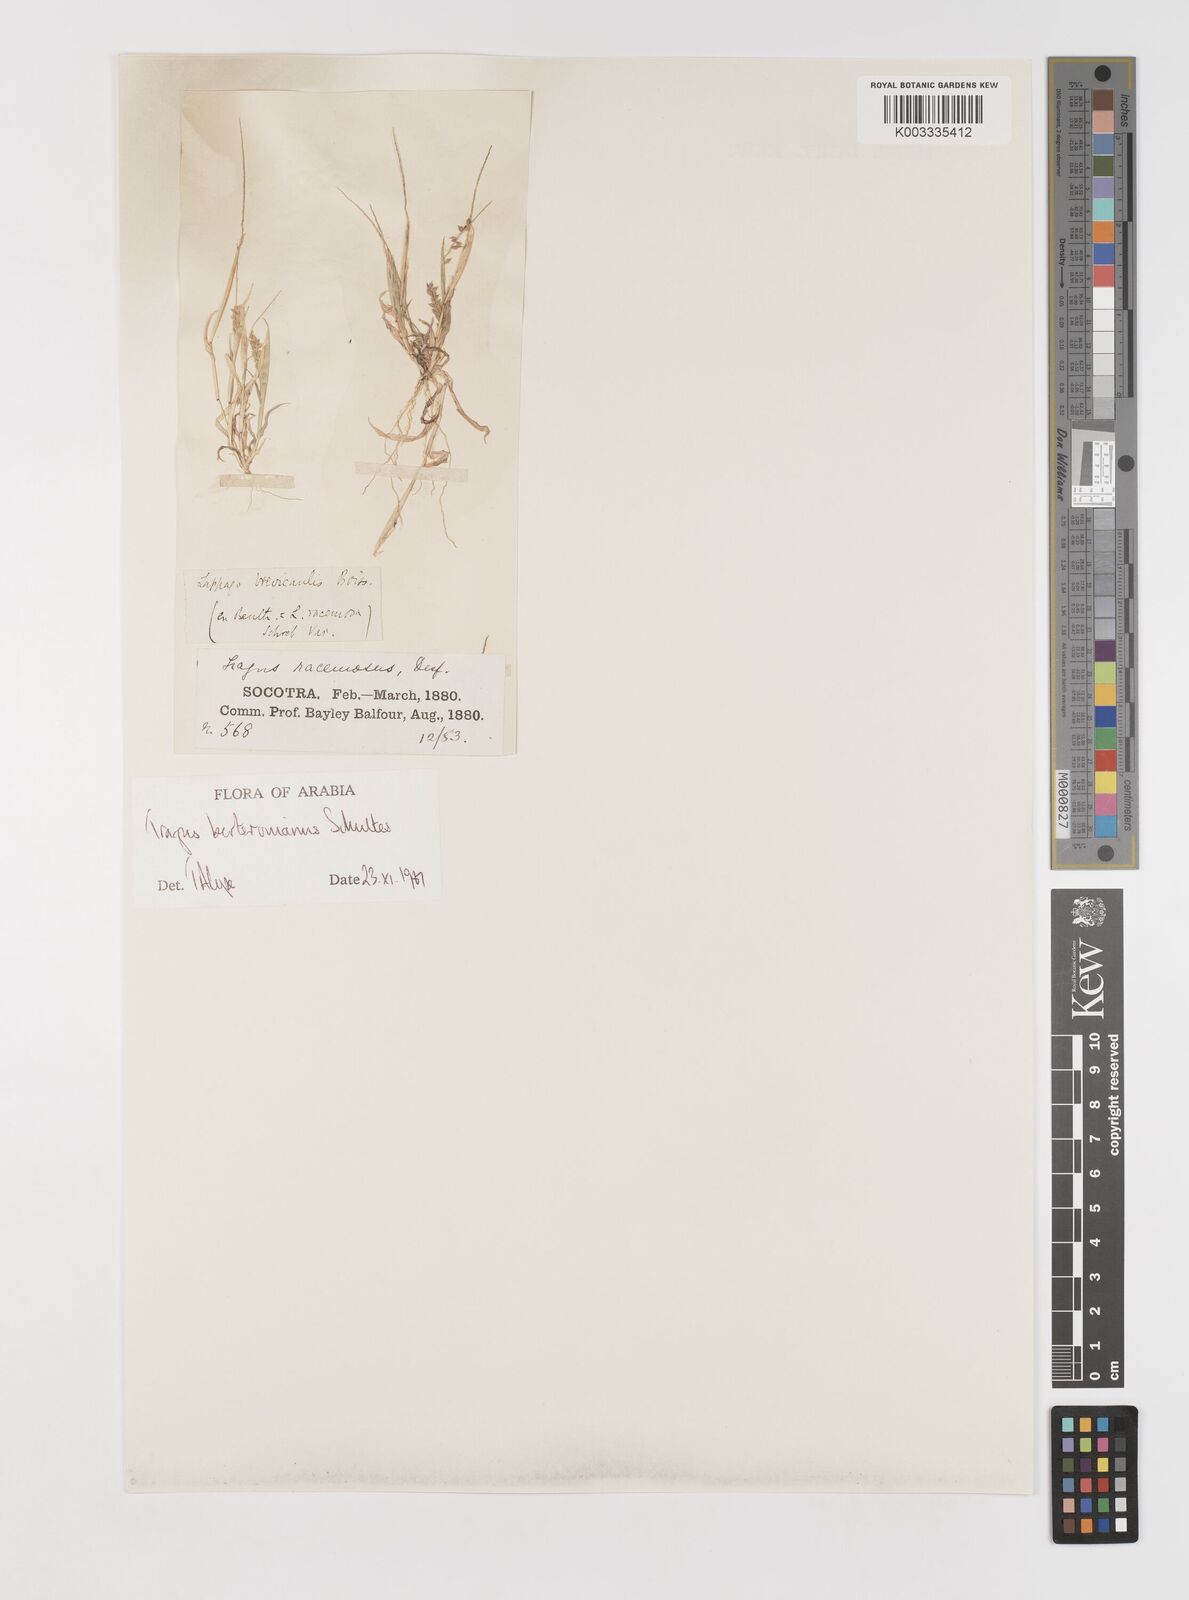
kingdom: Plantae
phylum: Tracheophyta
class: Liliopsida
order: Poales
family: Poaceae
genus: Tragus
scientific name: Tragus berteronianus
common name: African bur-grass
